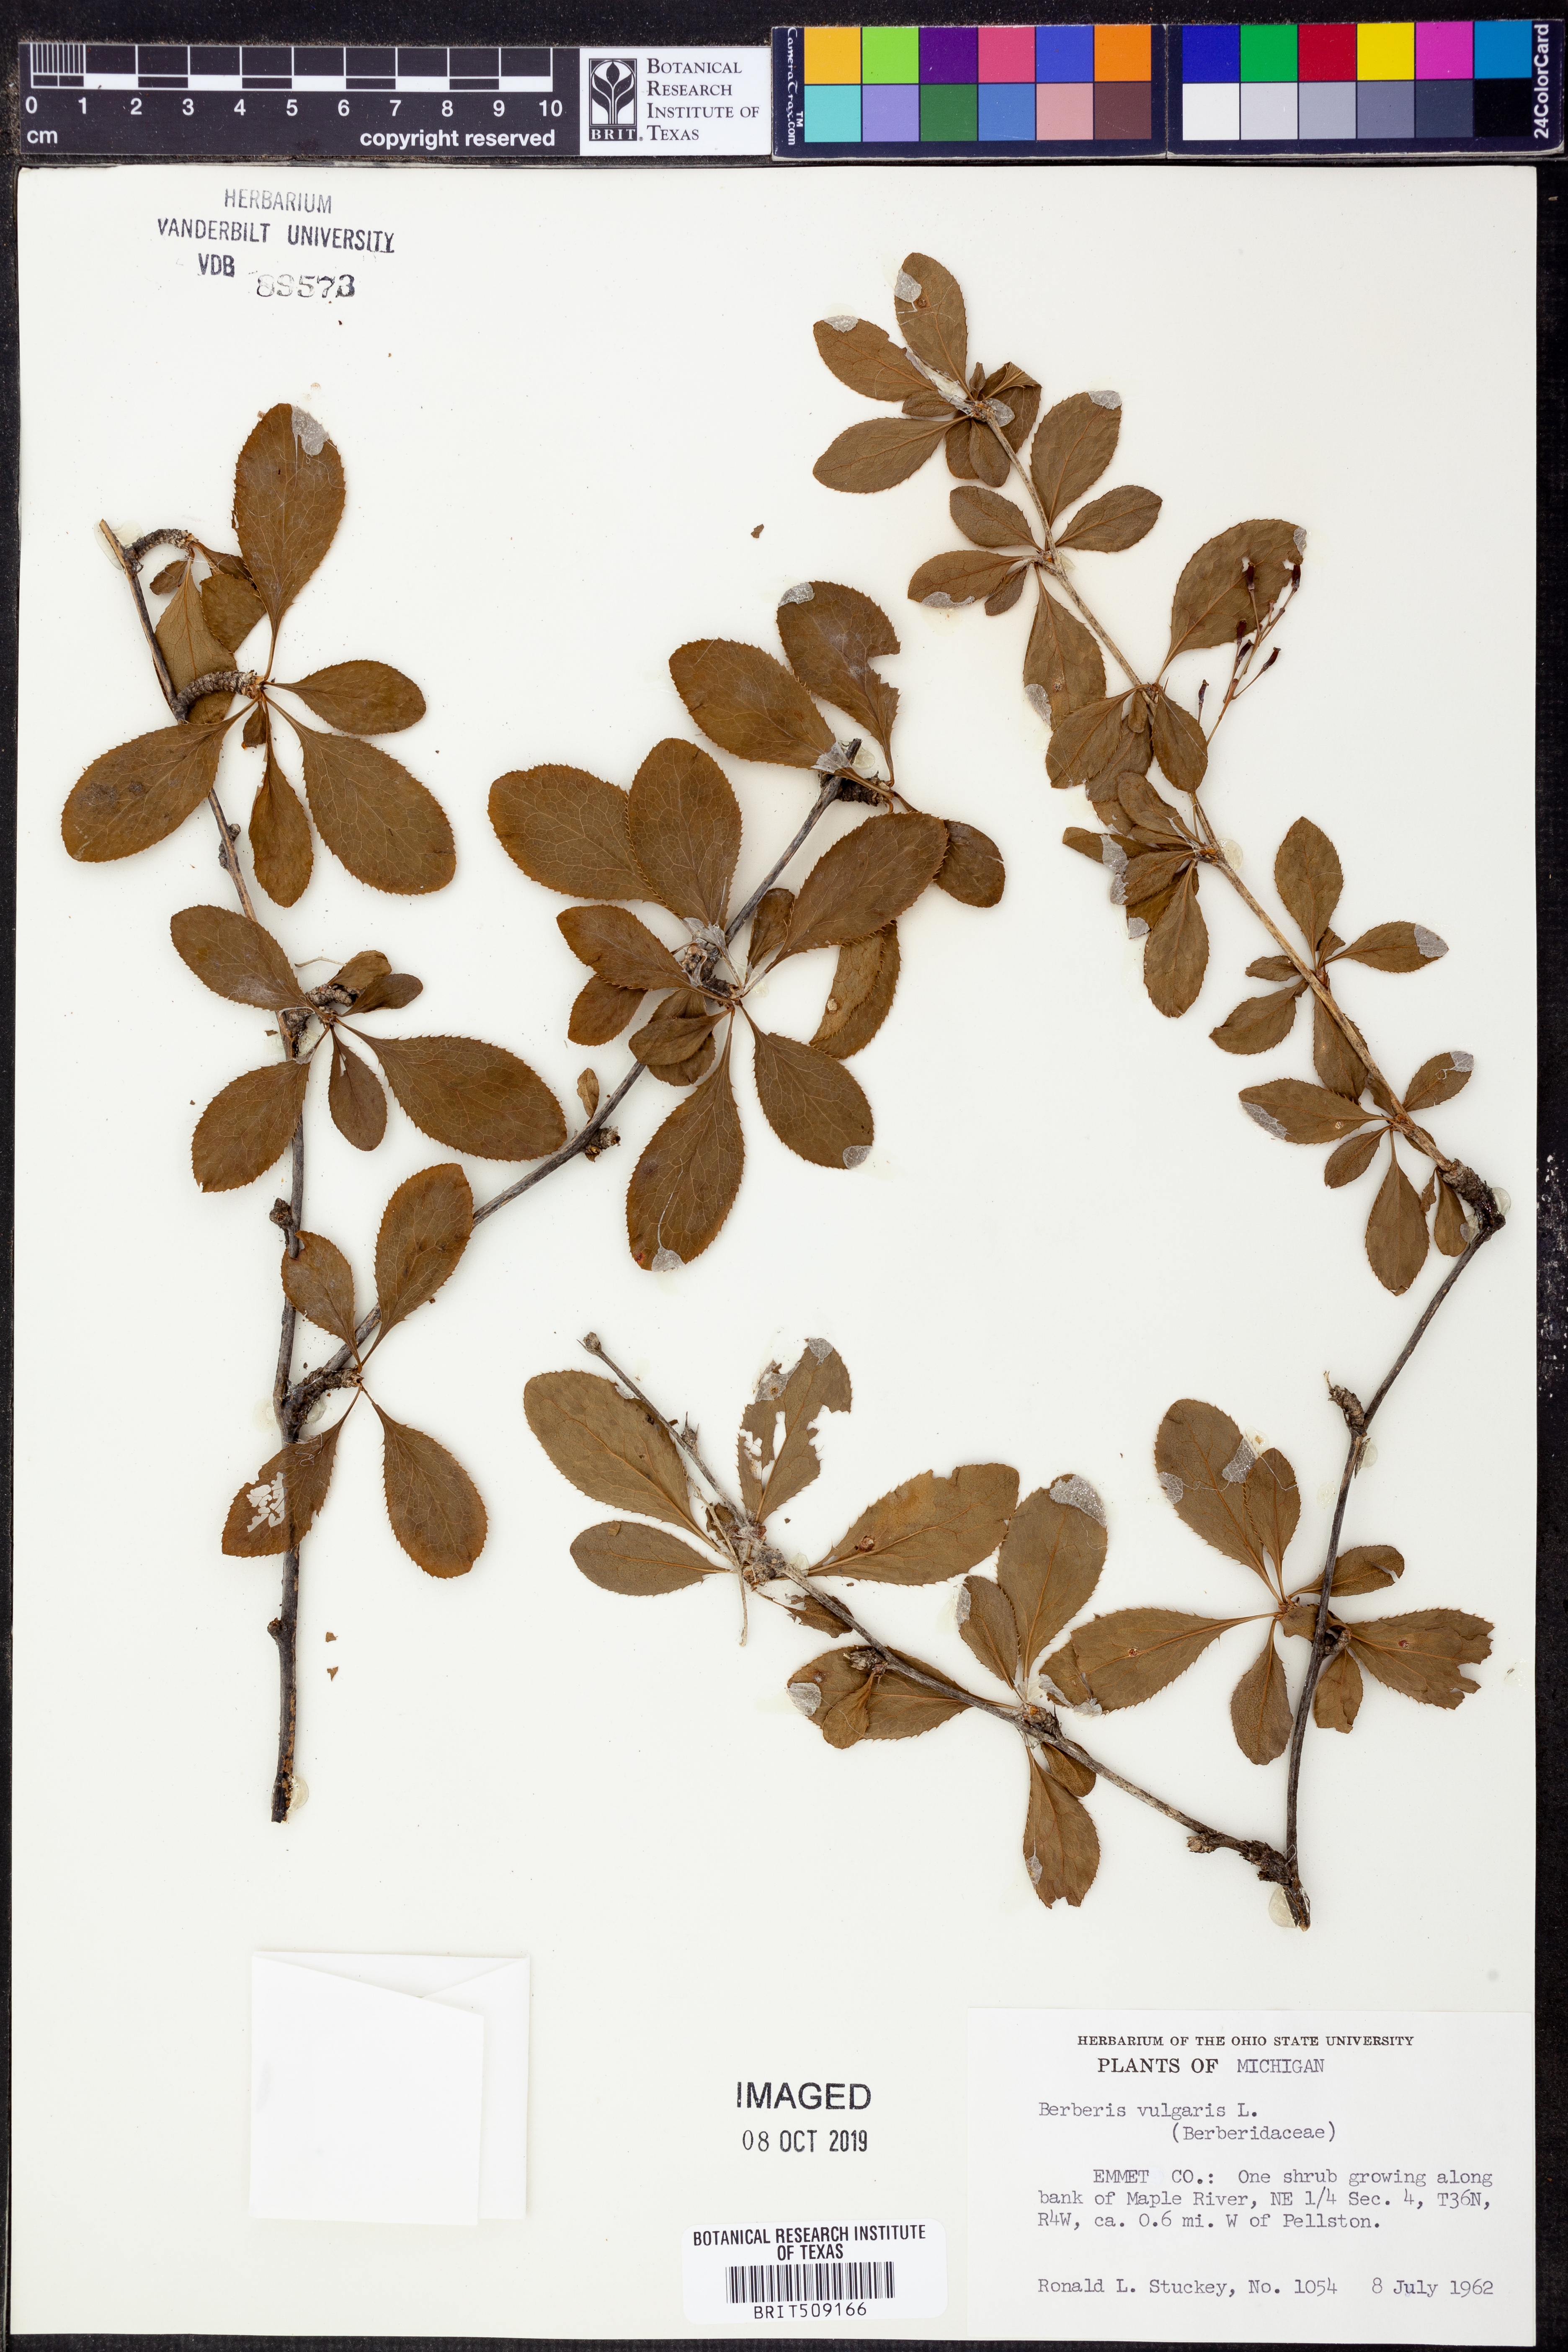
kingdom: Plantae
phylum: Tracheophyta
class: Magnoliopsida
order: Ranunculales
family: Berberidaceae
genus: Berberis
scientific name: Berberis vulgaris
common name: Barberry
